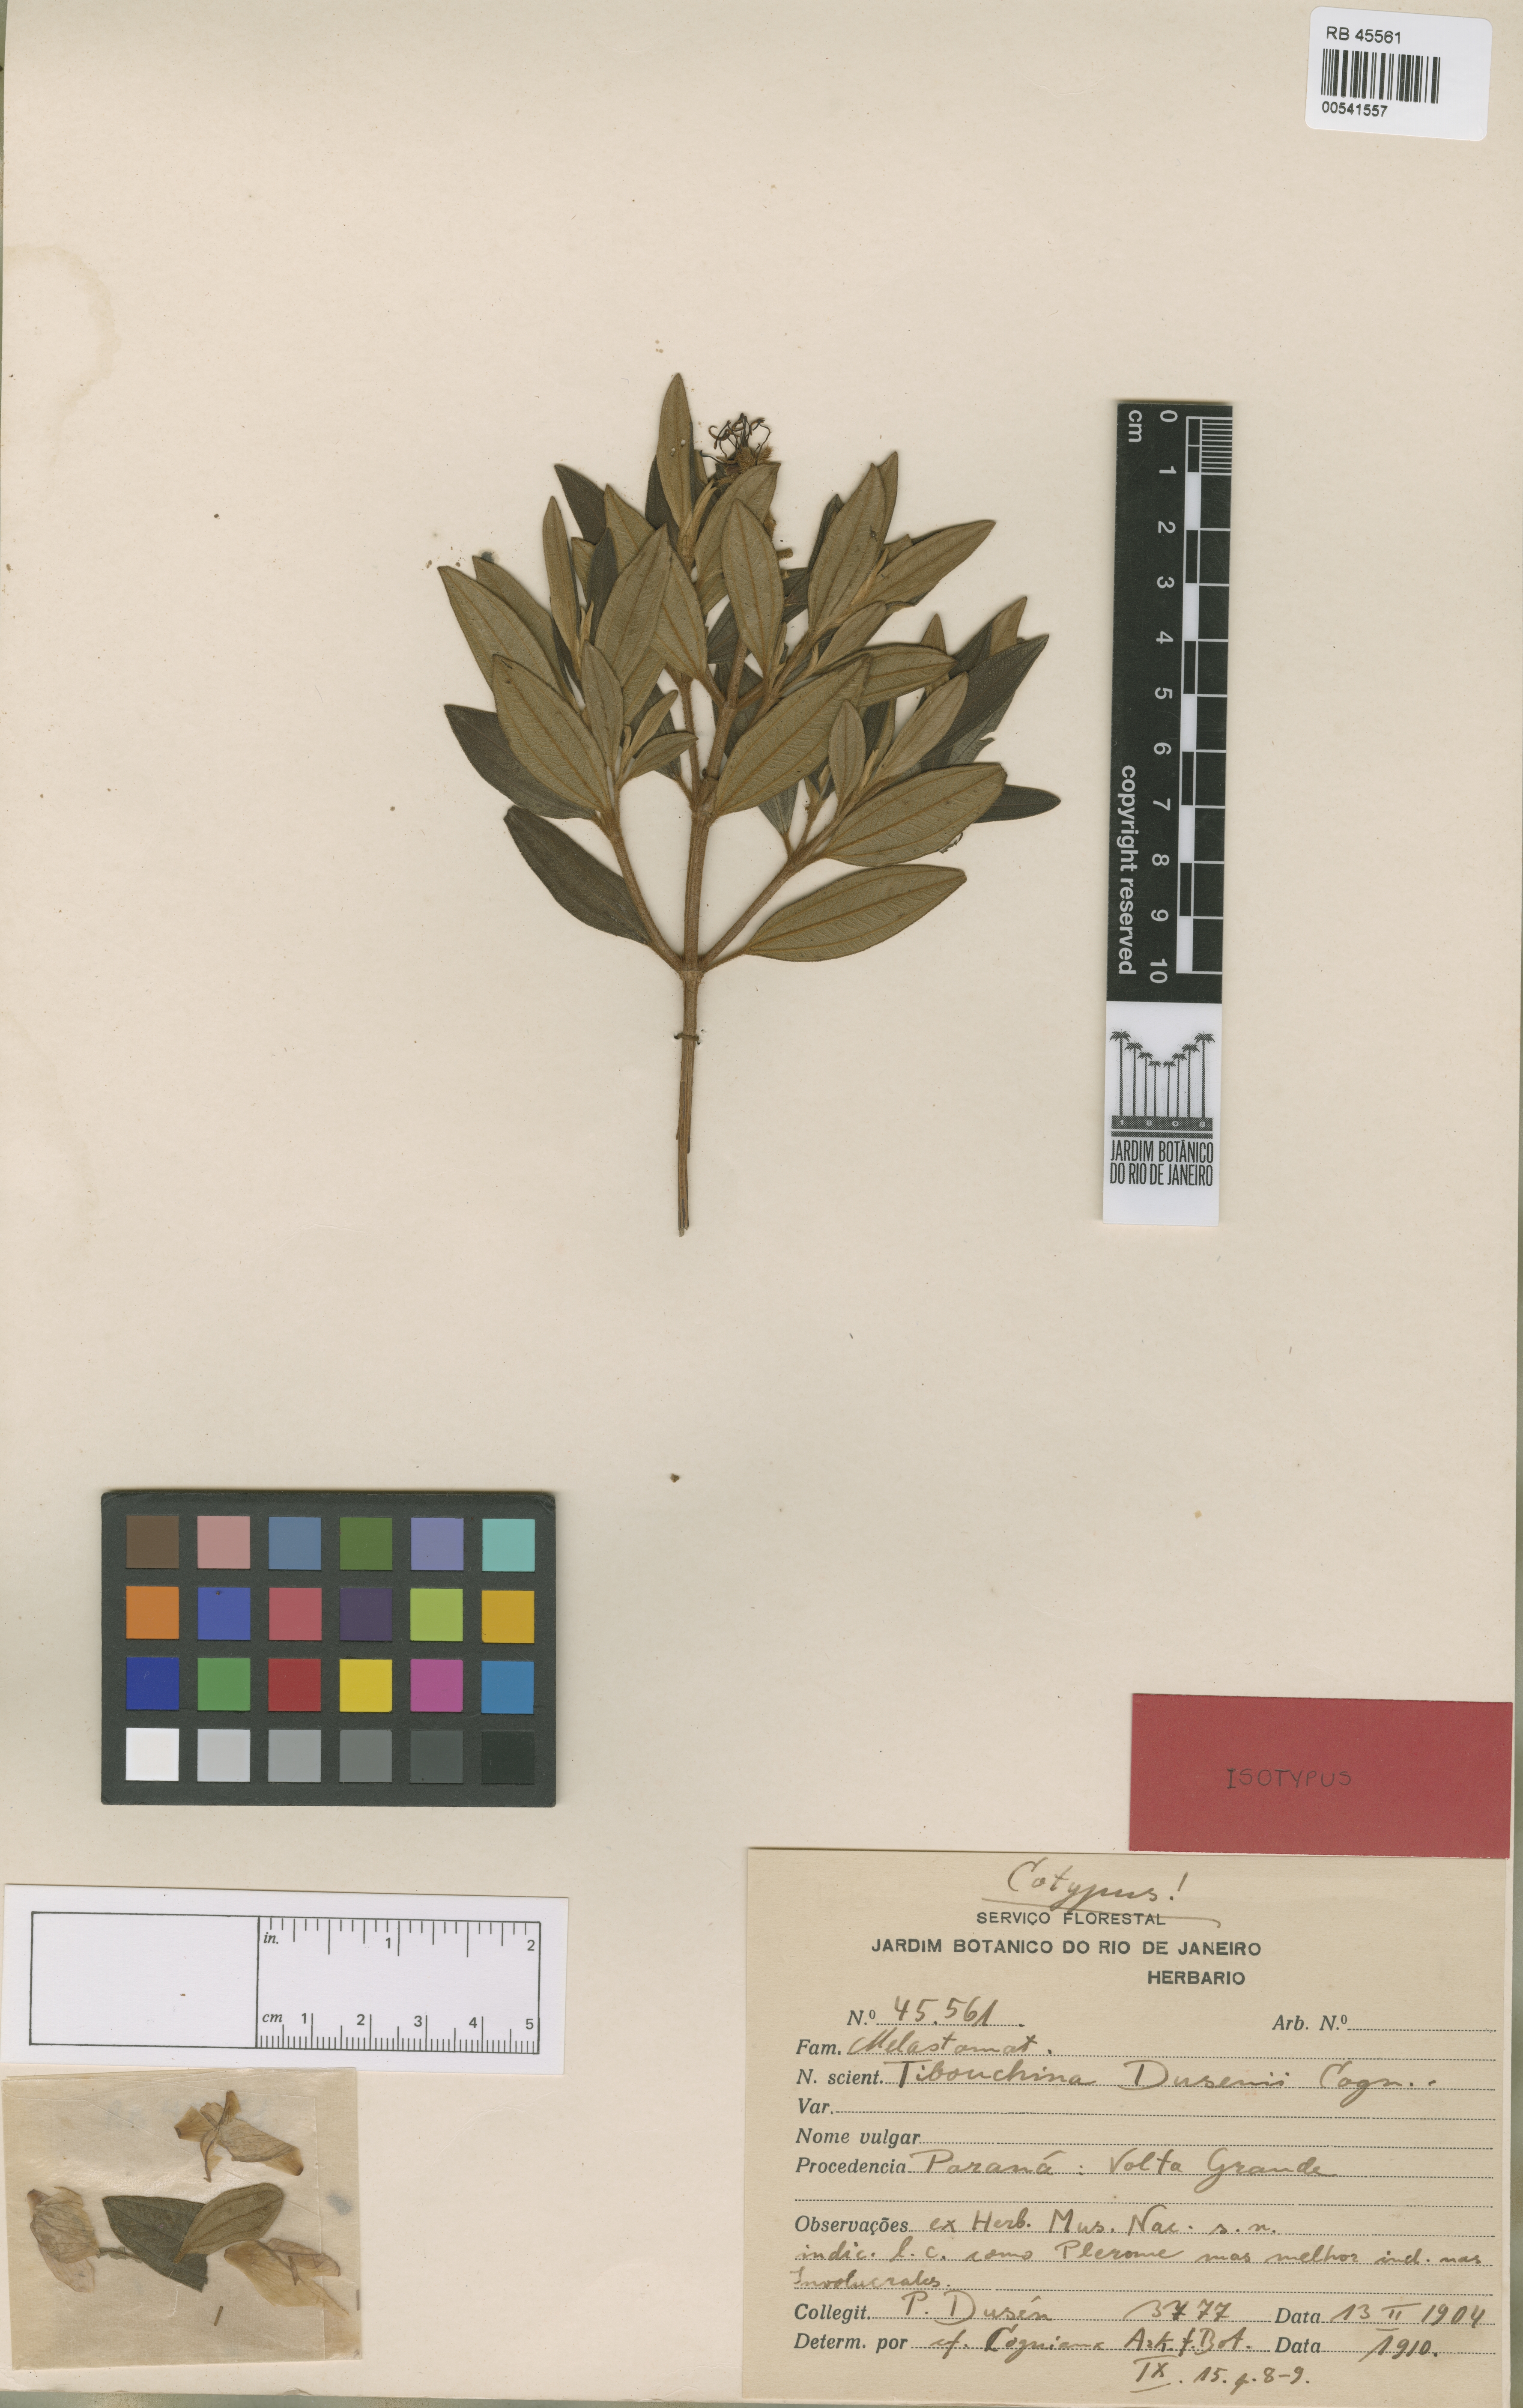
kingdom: Plantae
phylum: Tracheophyta
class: Magnoliopsida
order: Myrtales
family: Melastomataceae
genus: Pleroma
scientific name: Pleroma dusenii
